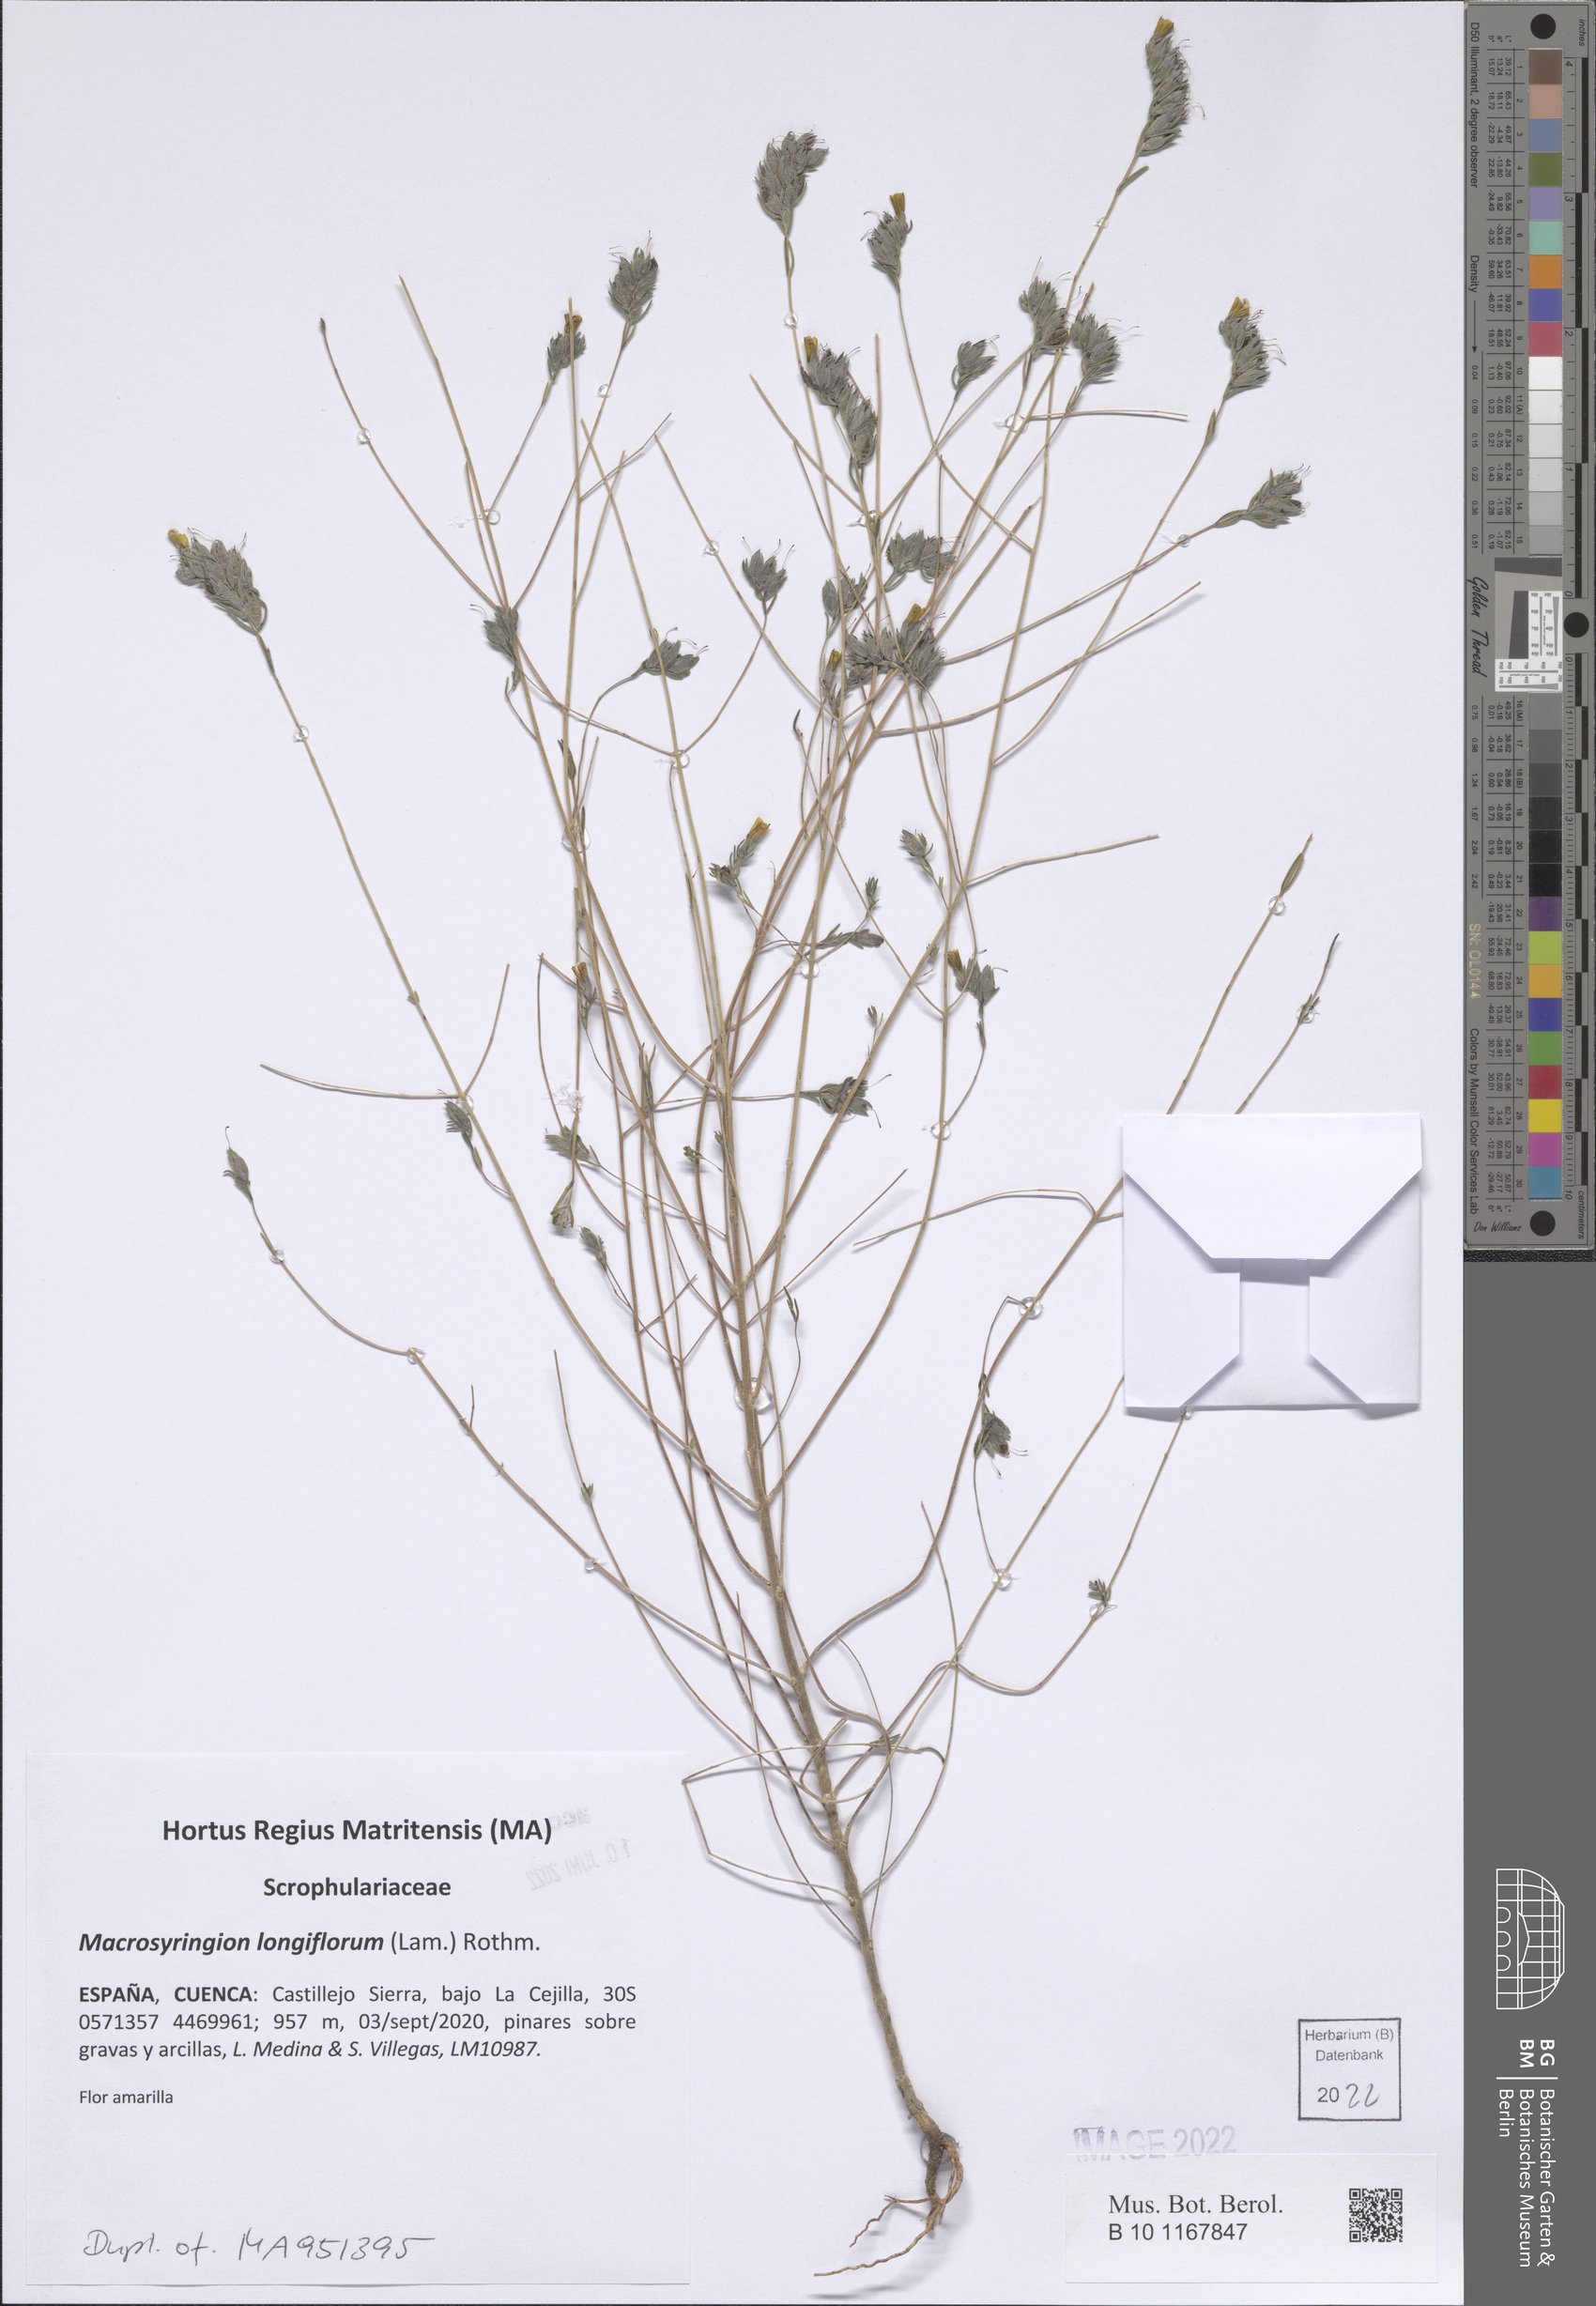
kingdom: Plantae
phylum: Tracheophyta
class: Magnoliopsida
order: Lamiales
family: Orobanchaceae
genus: Odontites
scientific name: Odontites longiflorus
